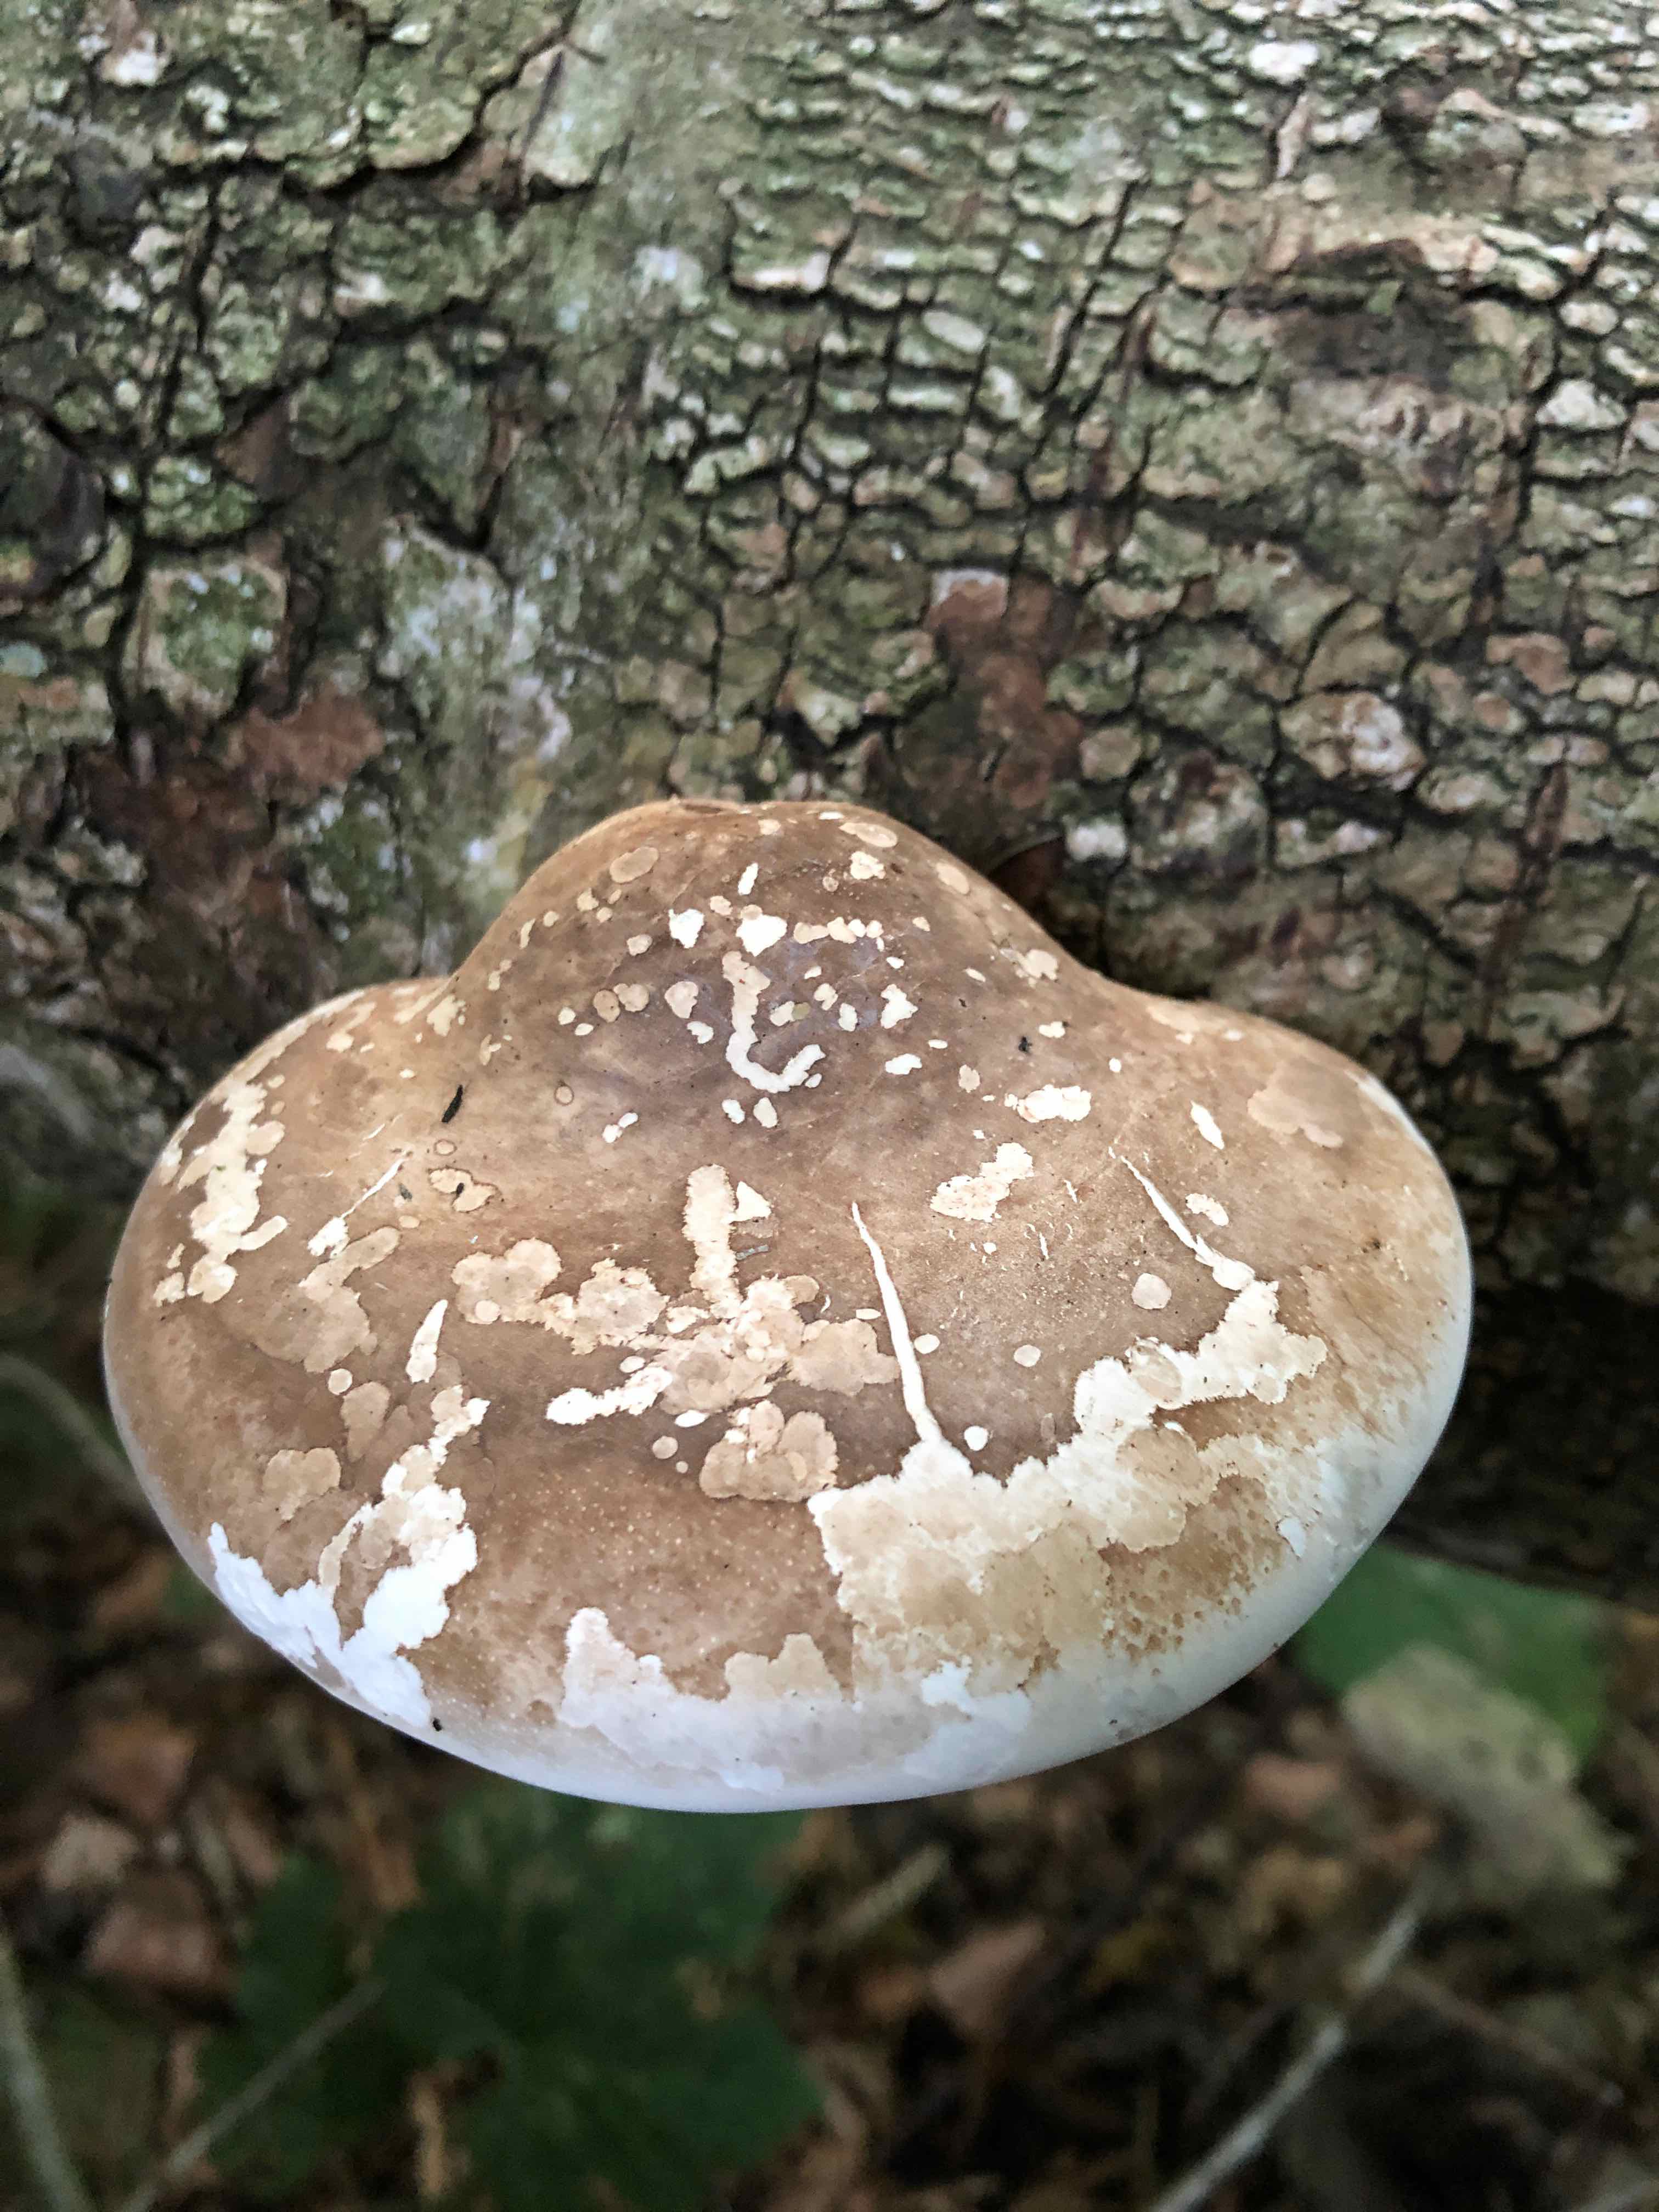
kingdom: Fungi
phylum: Basidiomycota
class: Agaricomycetes
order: Polyporales
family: Fomitopsidaceae
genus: Fomitopsis
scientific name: Fomitopsis betulina
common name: birkeporesvamp
